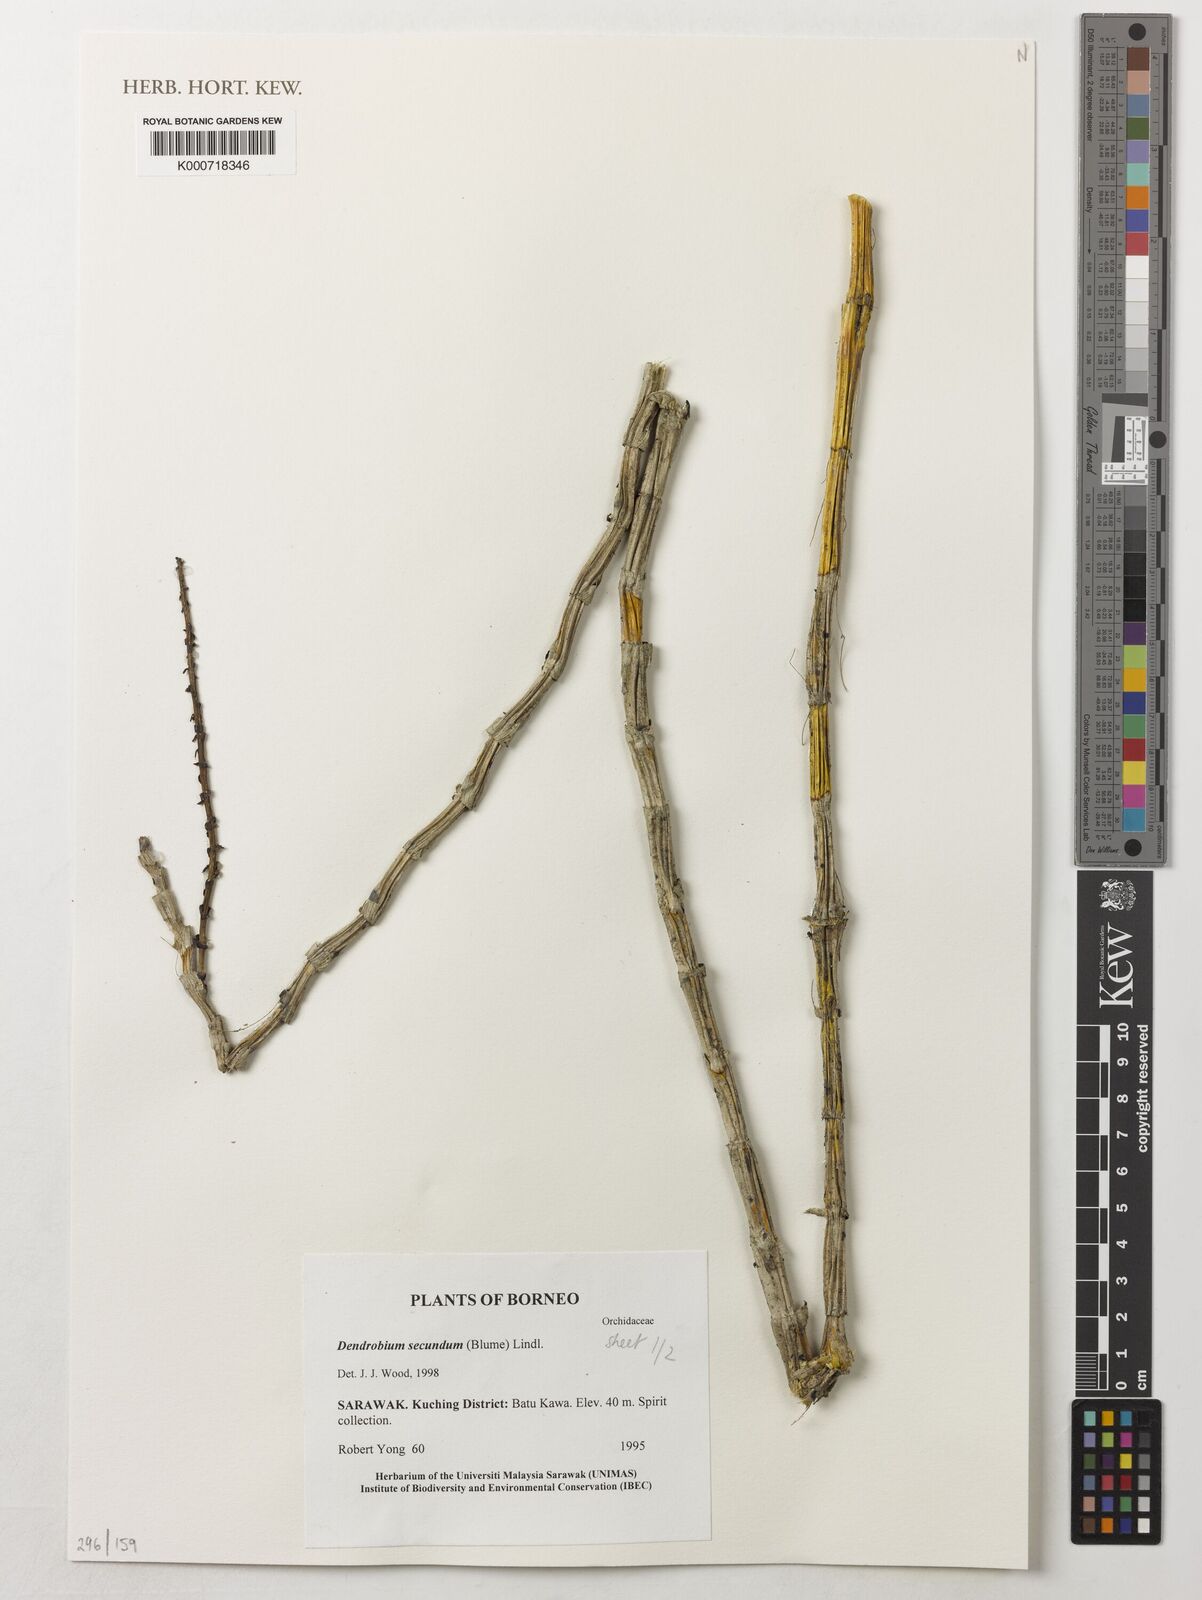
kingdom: Plantae
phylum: Tracheophyta
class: Liliopsida
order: Asparagales
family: Orchidaceae
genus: Dendrobium
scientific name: Dendrobium
